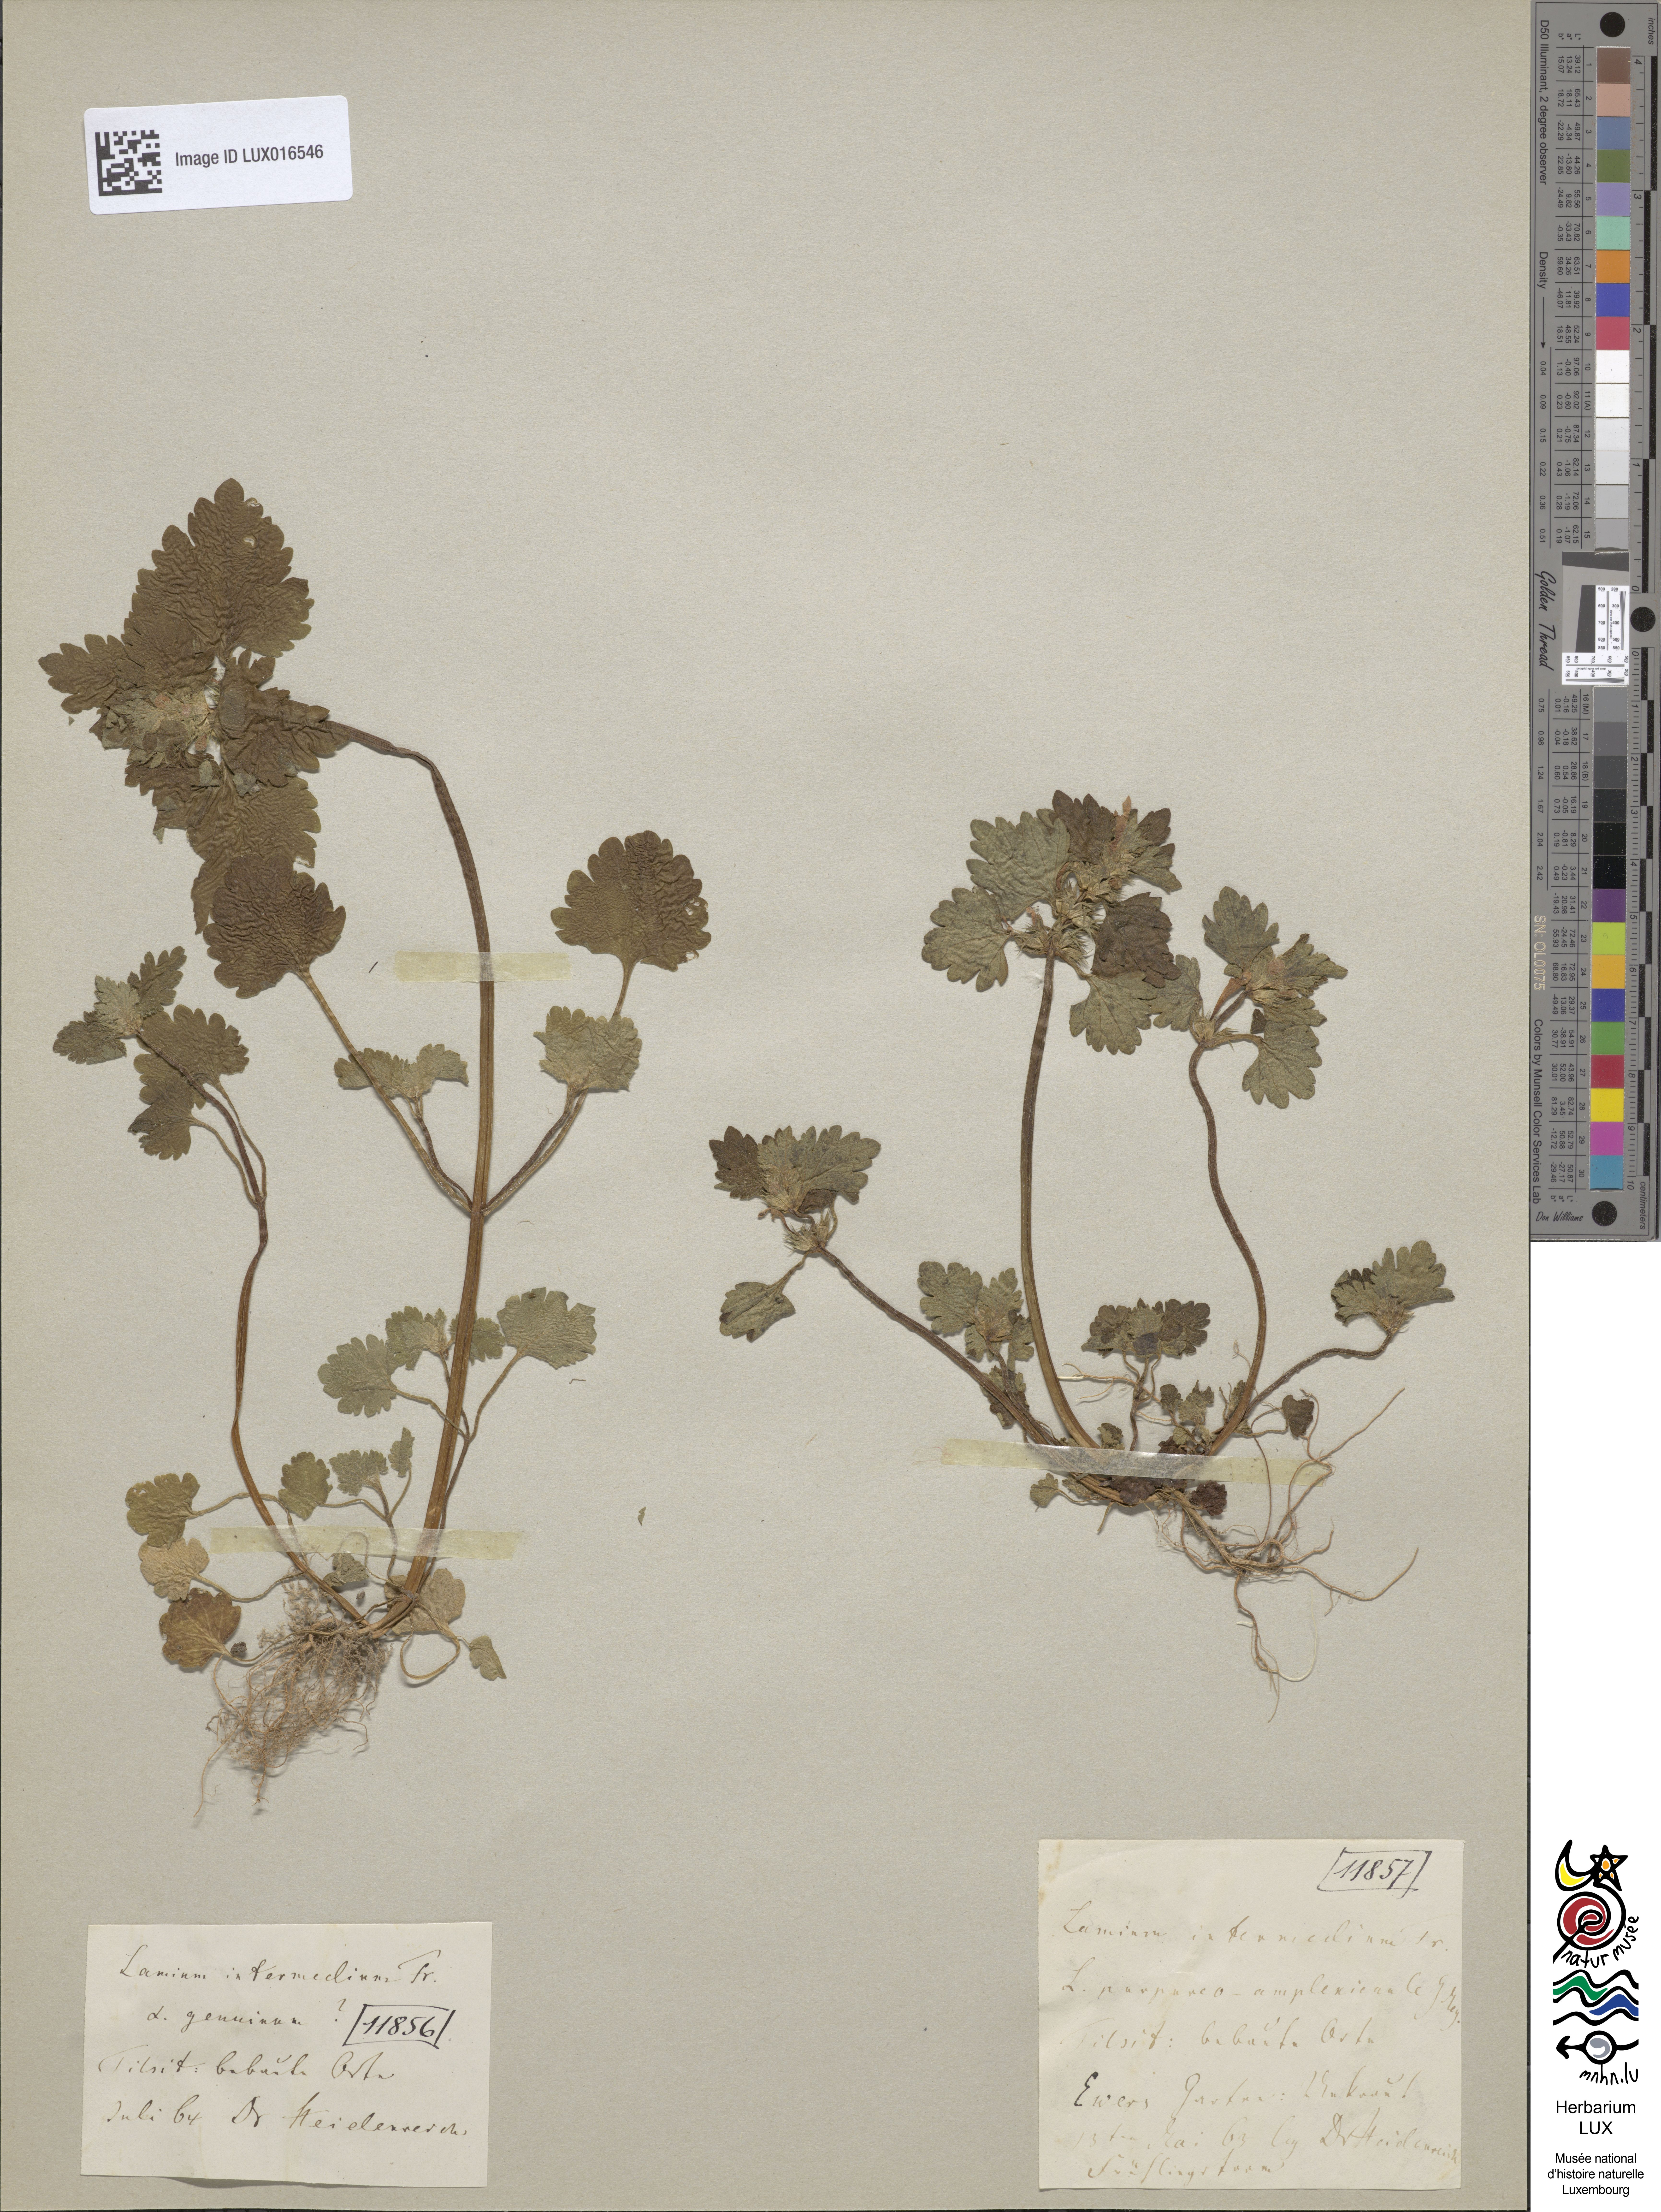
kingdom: Plantae
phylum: Tracheophyta
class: Magnoliopsida
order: Lamiales
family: Lamiaceae
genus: Lamium
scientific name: Lamium purpureum
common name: Red dead-nettle
